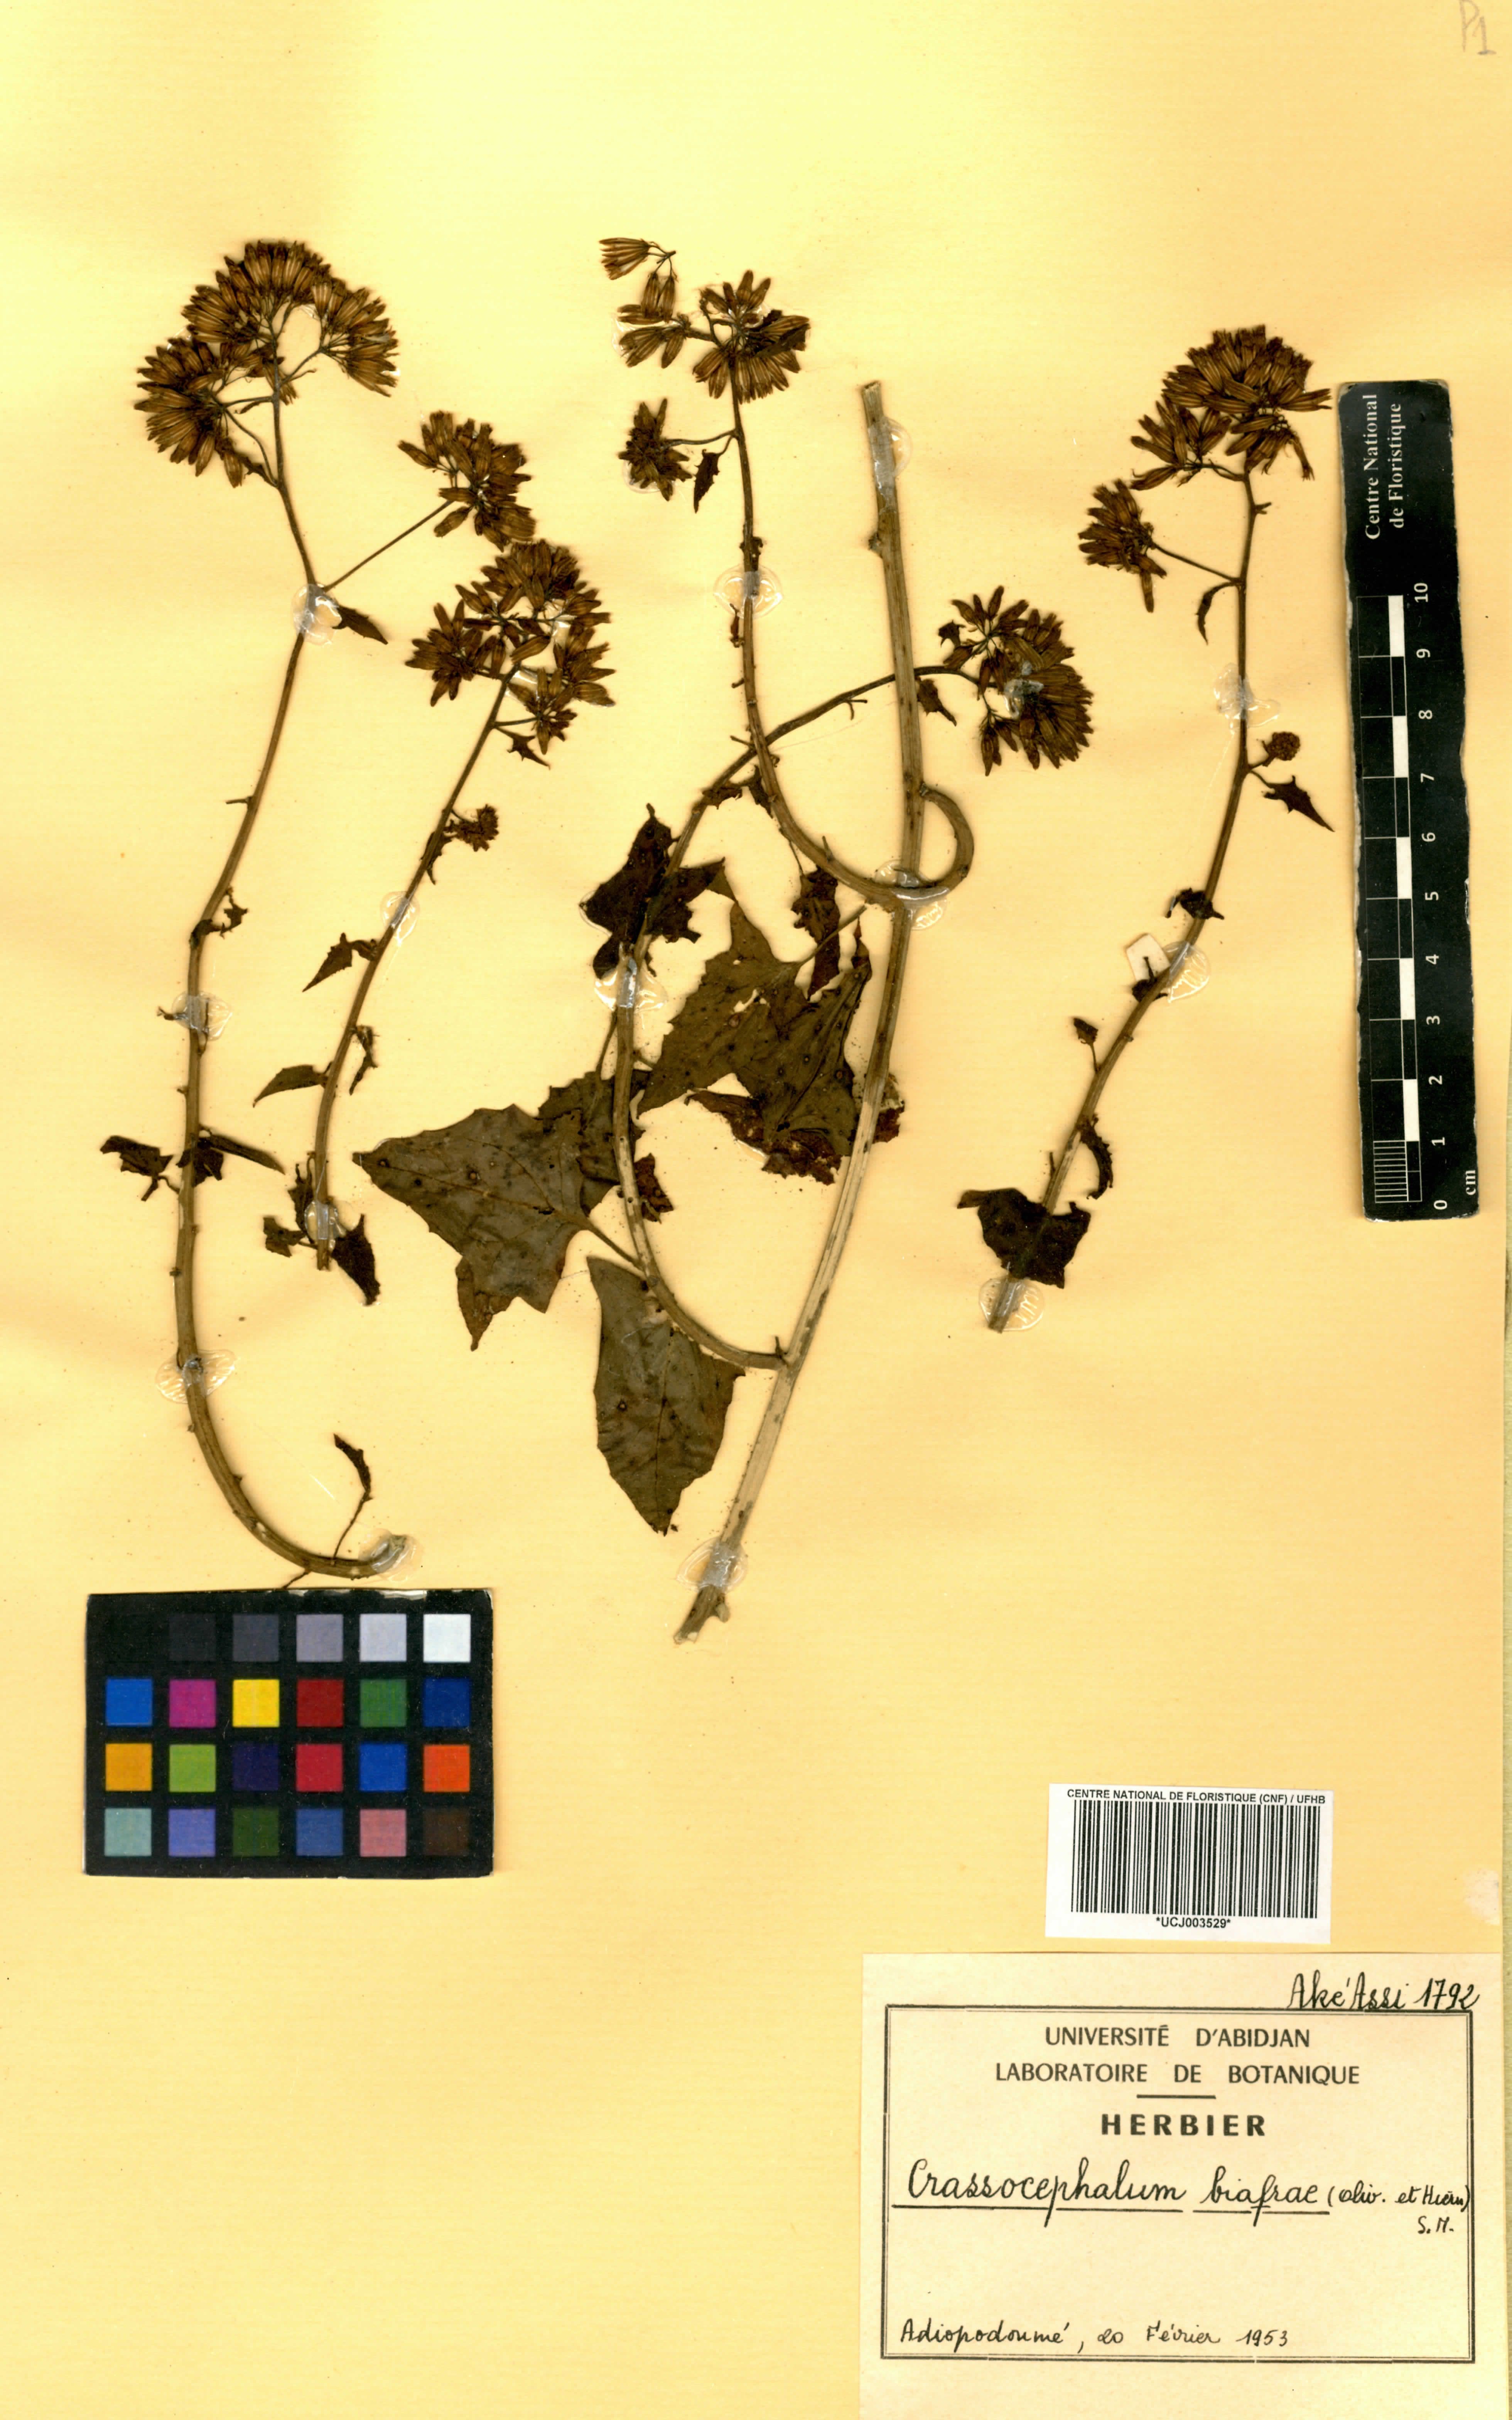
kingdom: Plantae
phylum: Tracheophyta
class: Magnoliopsida
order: Asterales
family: Asteraceae
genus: Solanecio
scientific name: Solanecio biafrae
